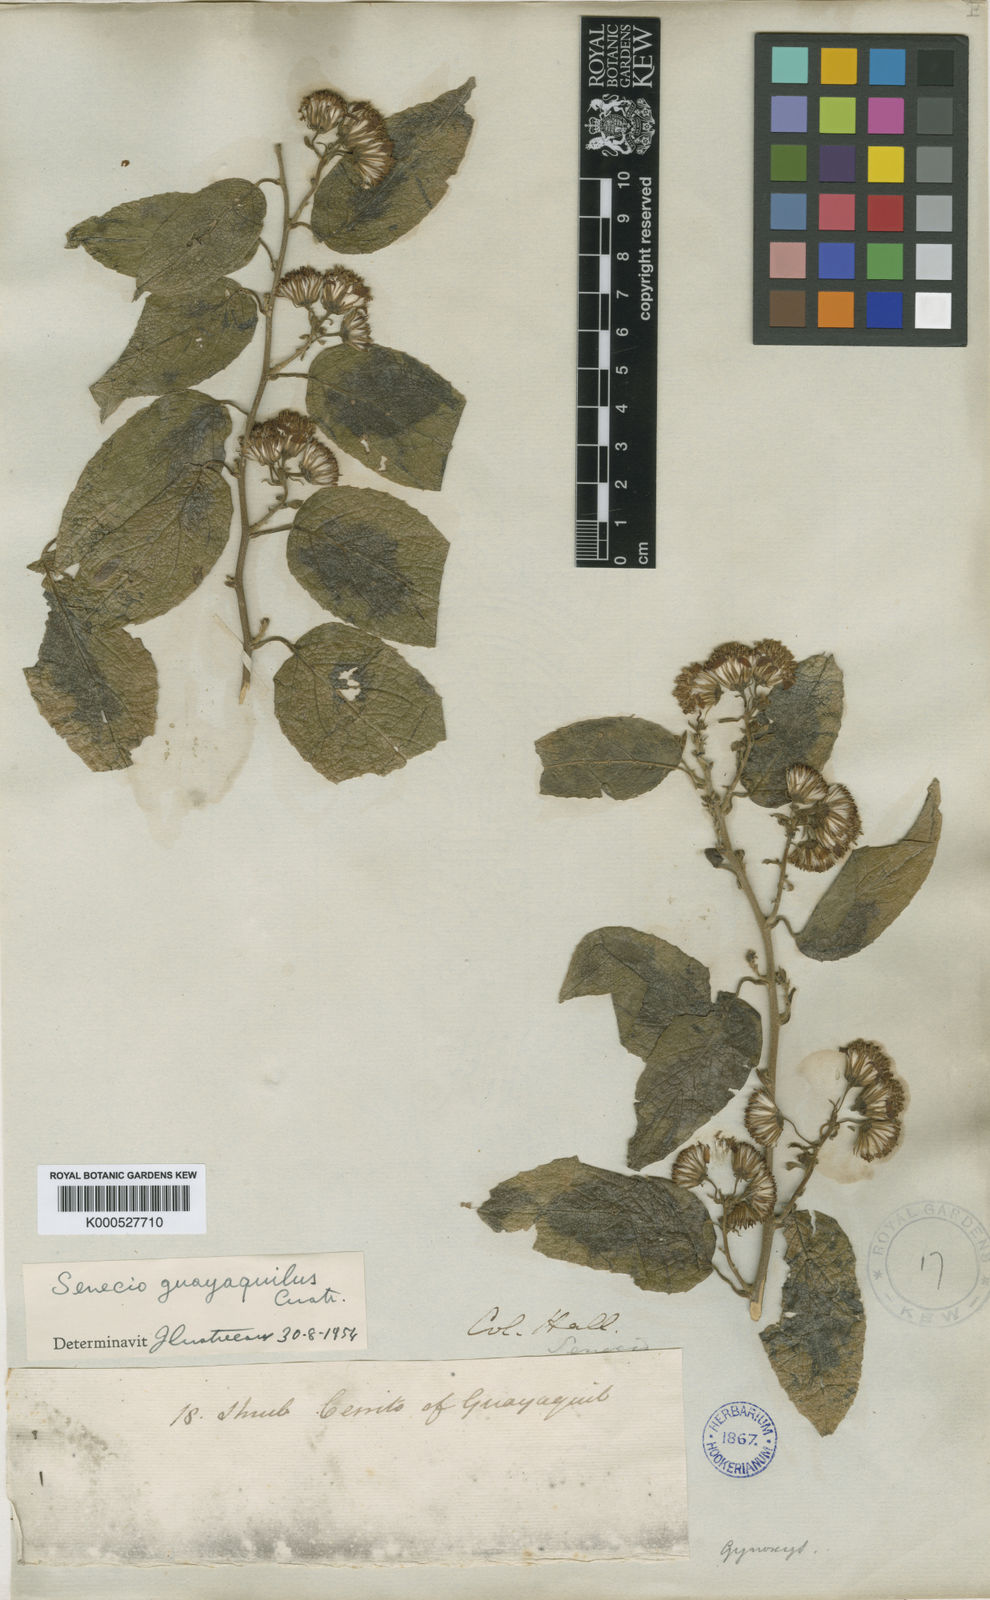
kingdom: Plantae
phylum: Tracheophyta
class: Magnoliopsida
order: Asterales
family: Asteraceae
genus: Pseudogynoxys
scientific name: Pseudogynoxys scabra
